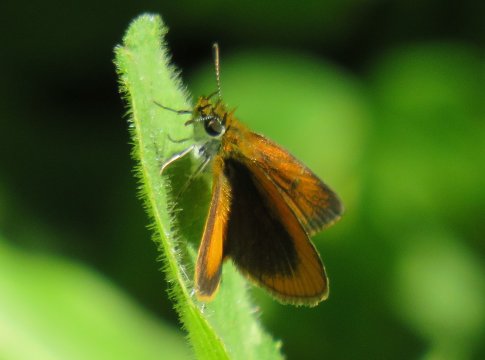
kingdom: Animalia
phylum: Arthropoda
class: Insecta
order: Lepidoptera
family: Hesperiidae
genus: Ancyloxypha
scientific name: Ancyloxypha numitor
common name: Least Skipper
